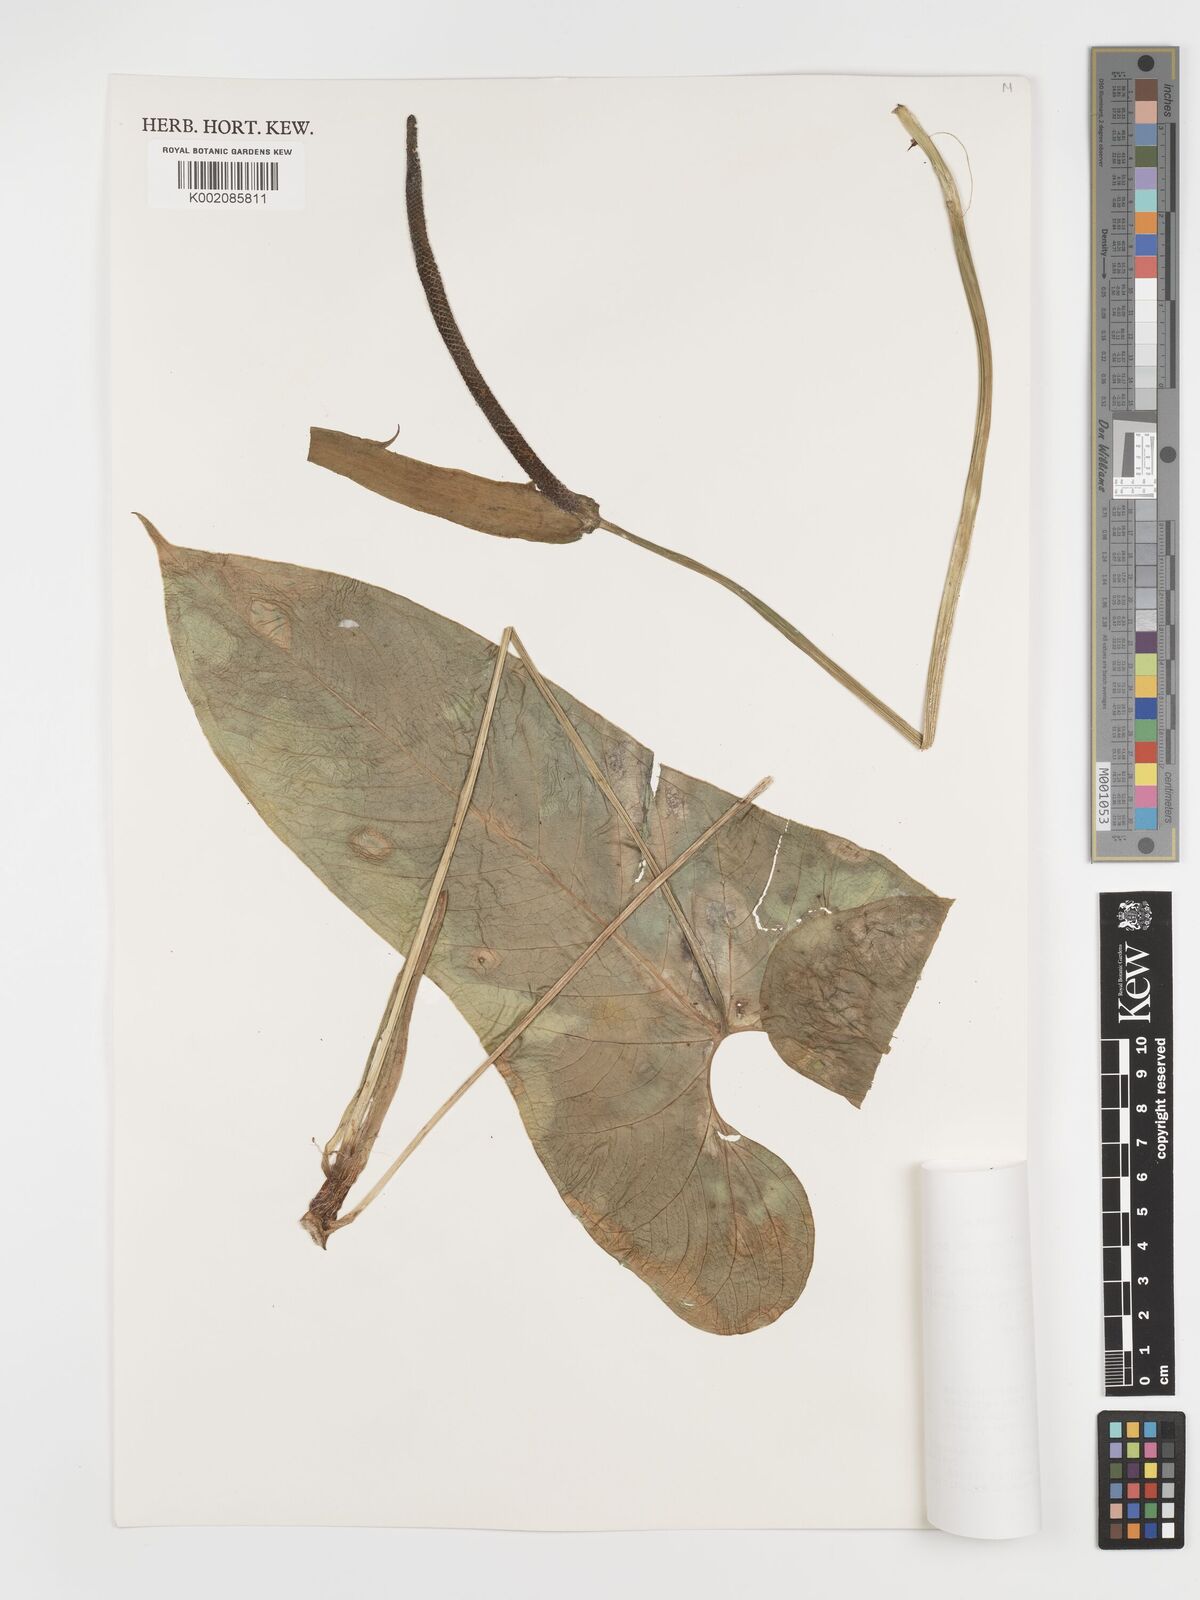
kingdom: Plantae
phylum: Tracheophyta
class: Liliopsida
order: Alismatales
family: Araceae
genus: Anthurium
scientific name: Anthurium coripatense
